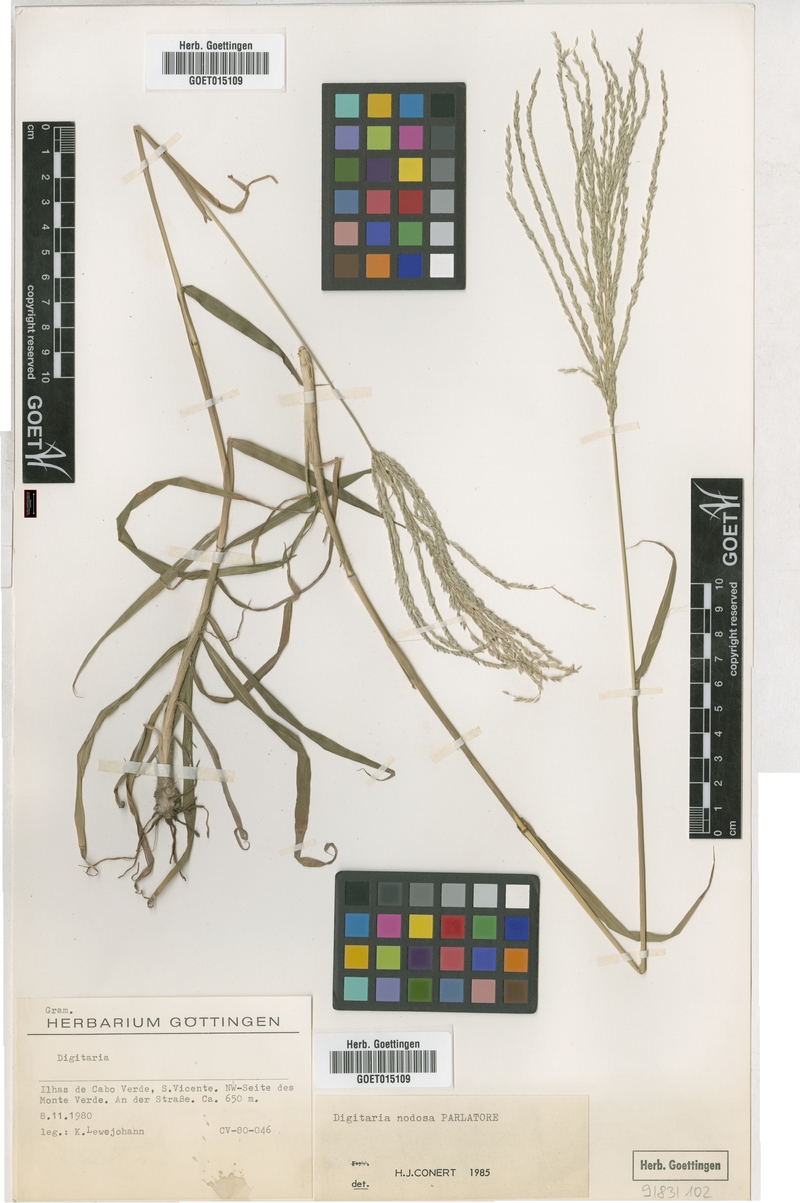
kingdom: Plantae
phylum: Tracheophyta
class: Liliopsida
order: Poales
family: Poaceae
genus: Digitaria
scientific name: Digitaria nodosa
